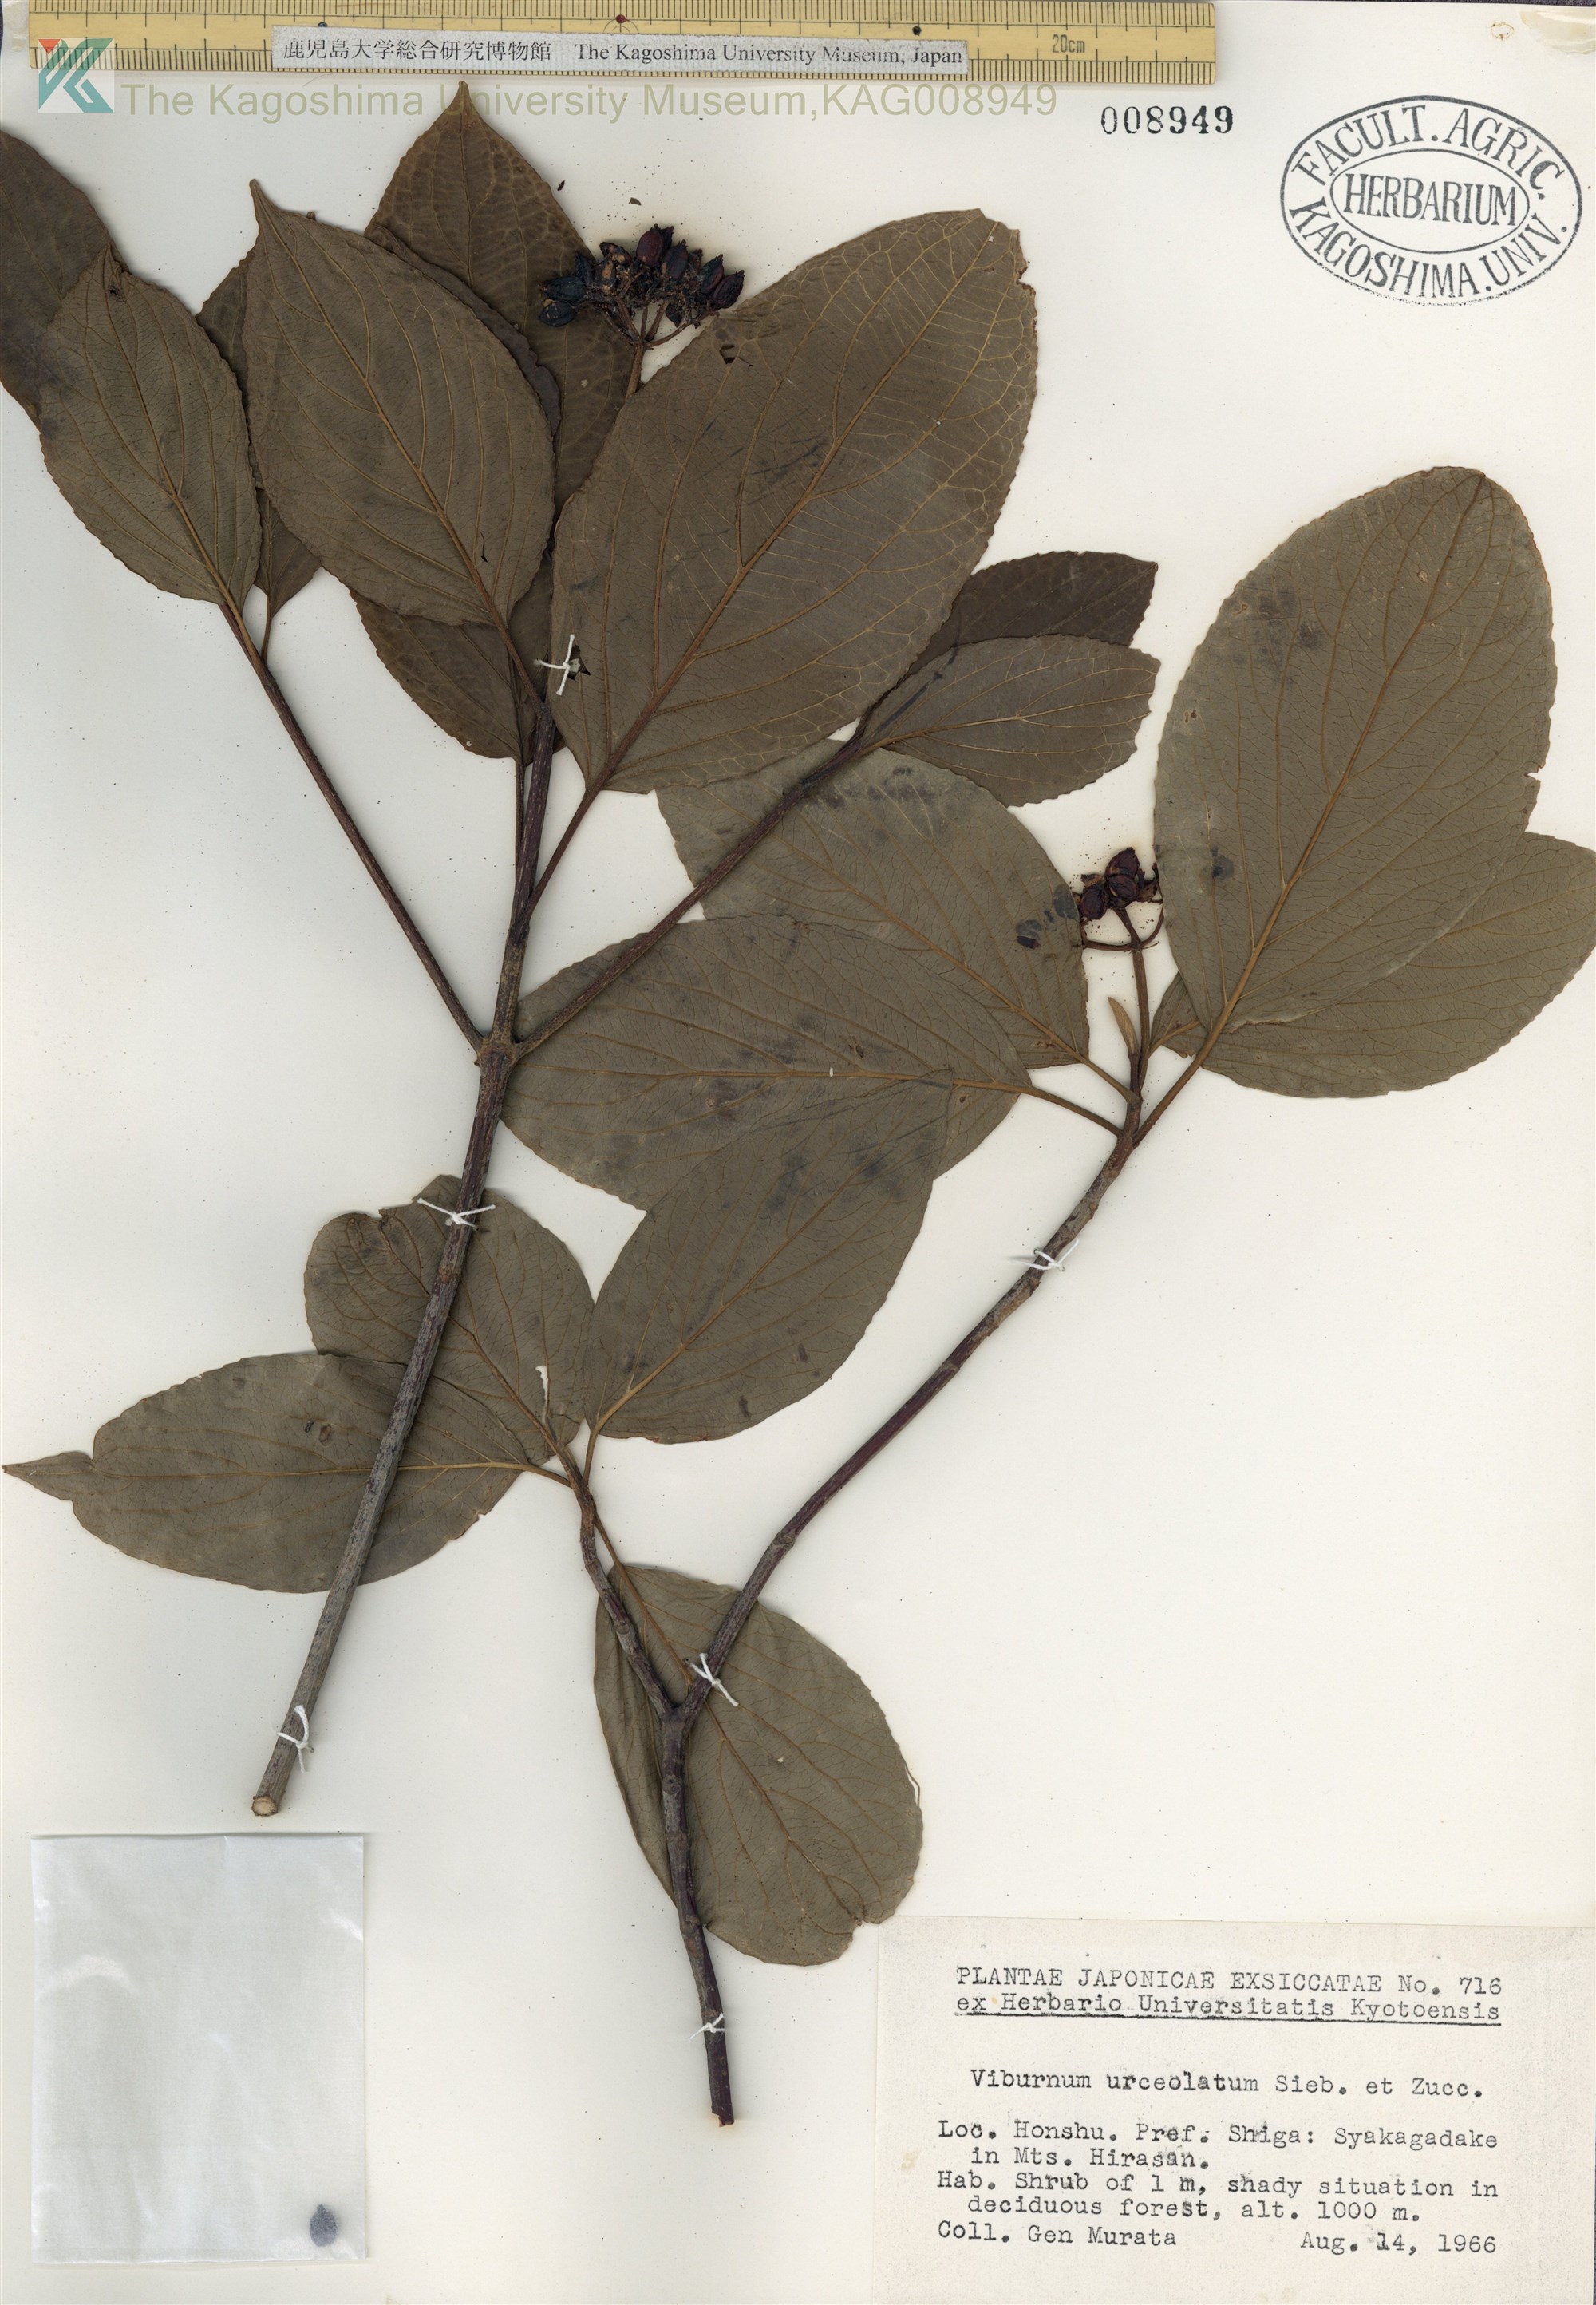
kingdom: Plantae
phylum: Tracheophyta
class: Magnoliopsida
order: Dipsacales
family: Viburnaceae
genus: Viburnum
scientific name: Viburnum urceolatum
